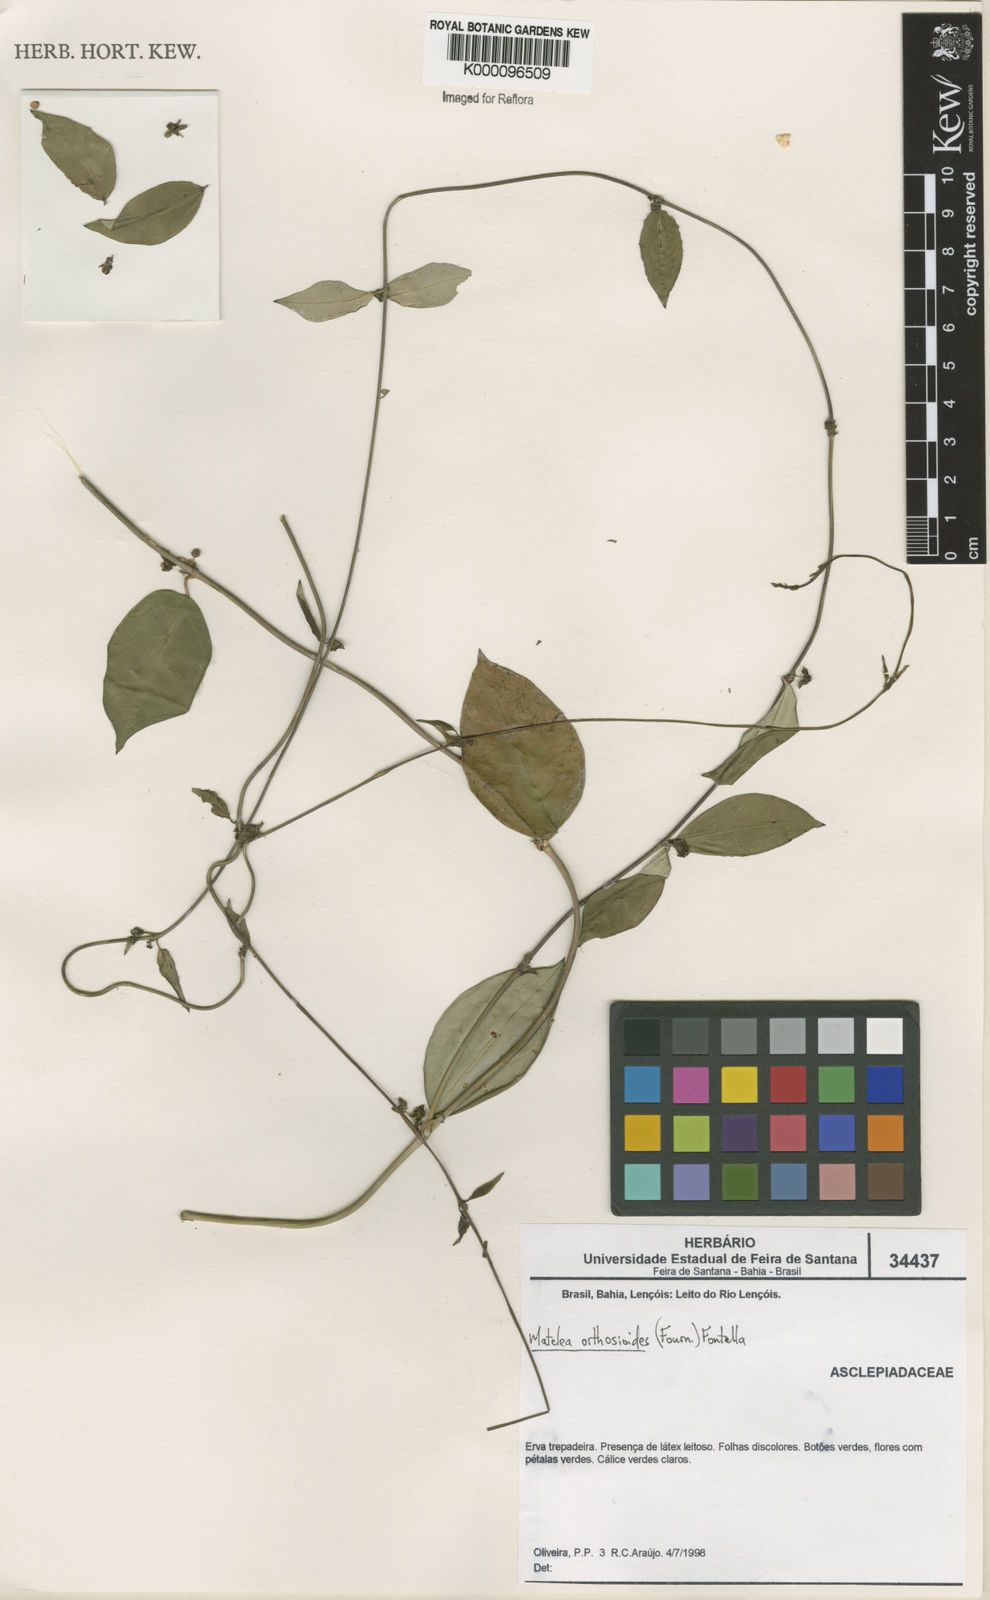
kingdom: Plantae
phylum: Tracheophyta
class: Magnoliopsida
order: Gentianales
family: Apocynaceae
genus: Matelea
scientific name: Matelea orthosioides
